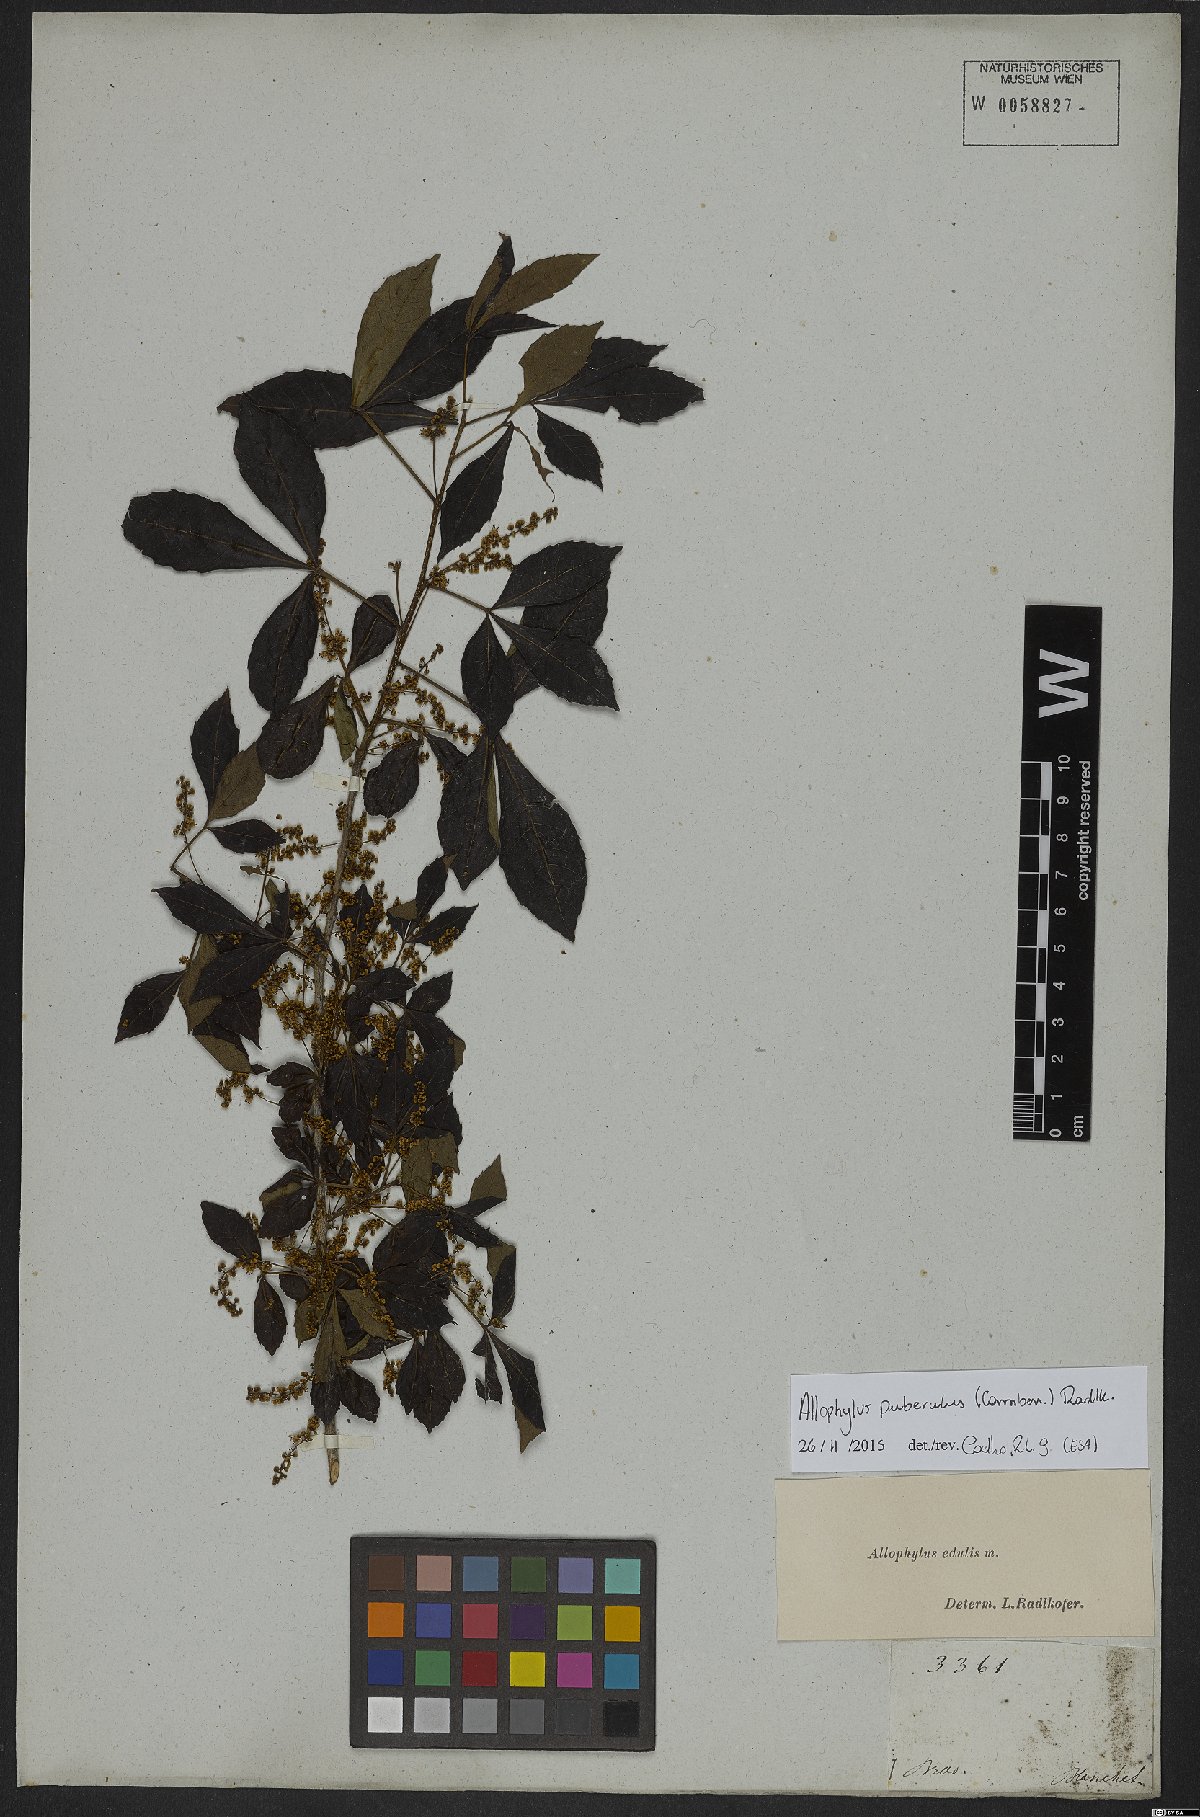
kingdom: Plantae
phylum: Tracheophyta
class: Magnoliopsida
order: Sapindales
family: Sapindaceae
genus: Allophylus
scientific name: Allophylus puberulus
